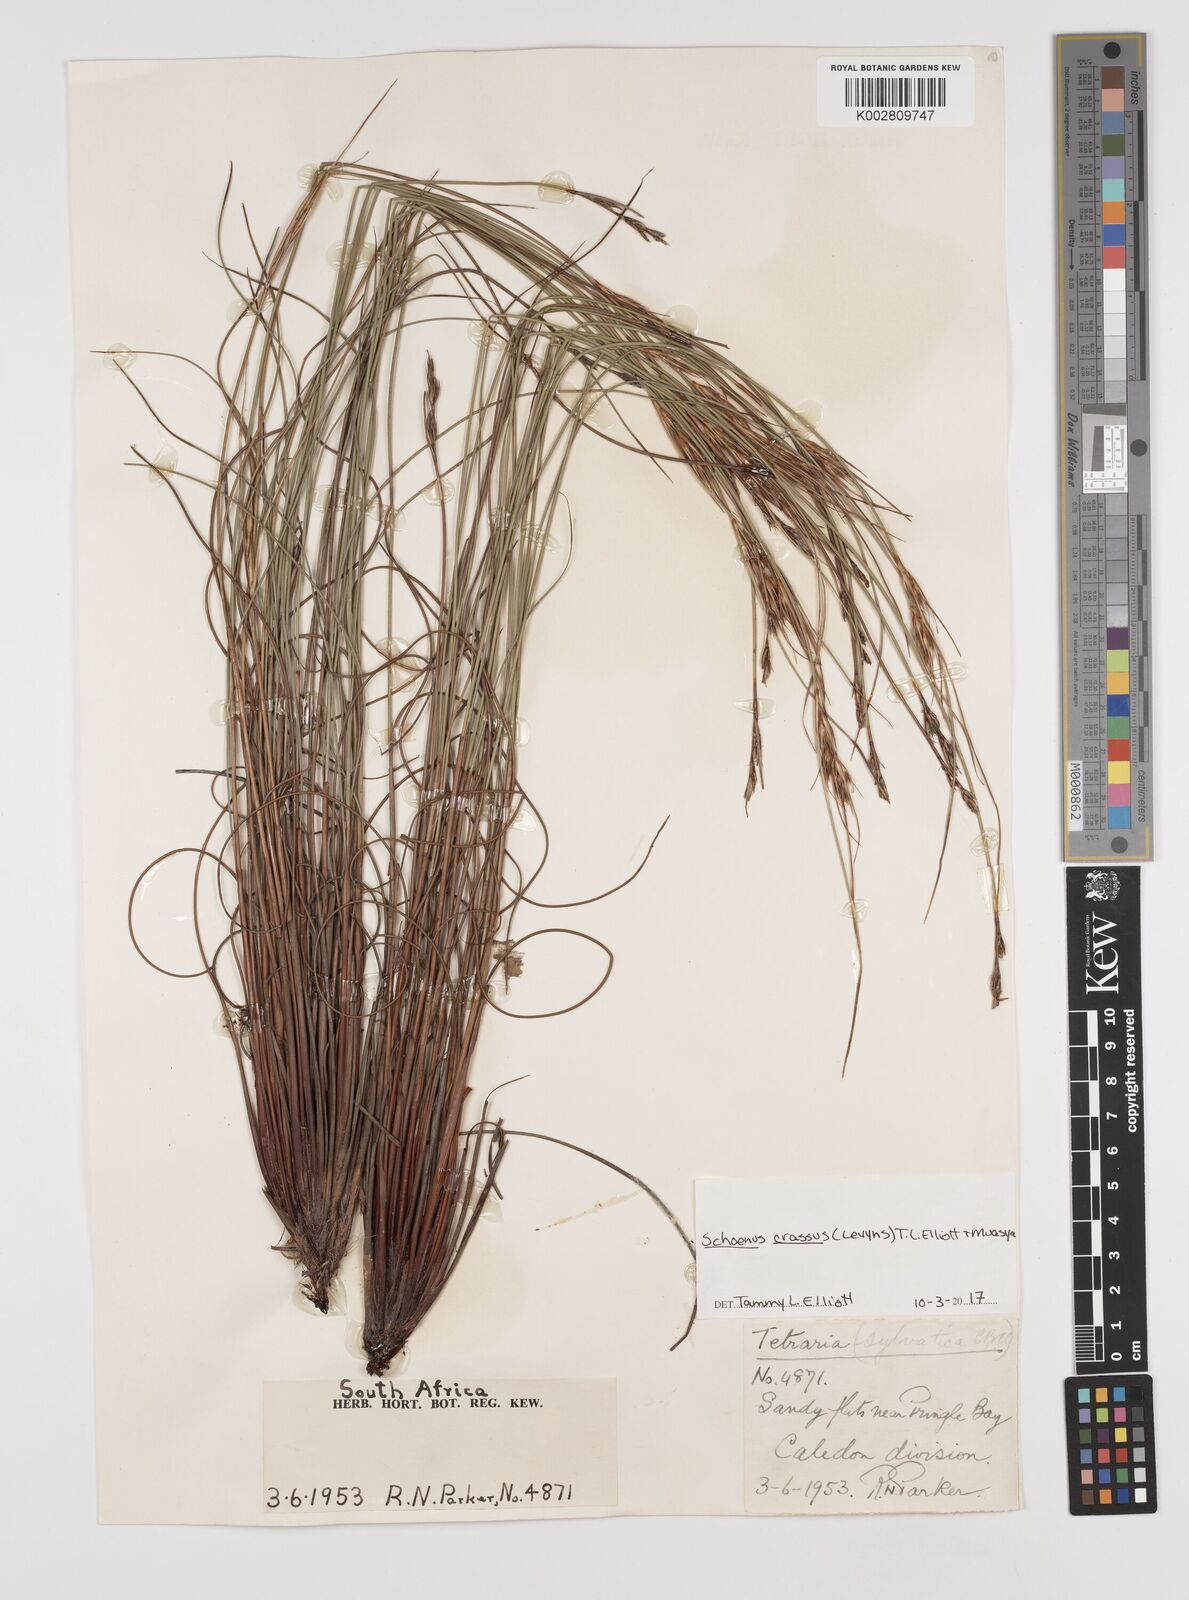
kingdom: Plantae
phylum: Tracheophyta
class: Liliopsida
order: Poales
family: Cyperaceae
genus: Schoenus
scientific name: Schoenus crassus
